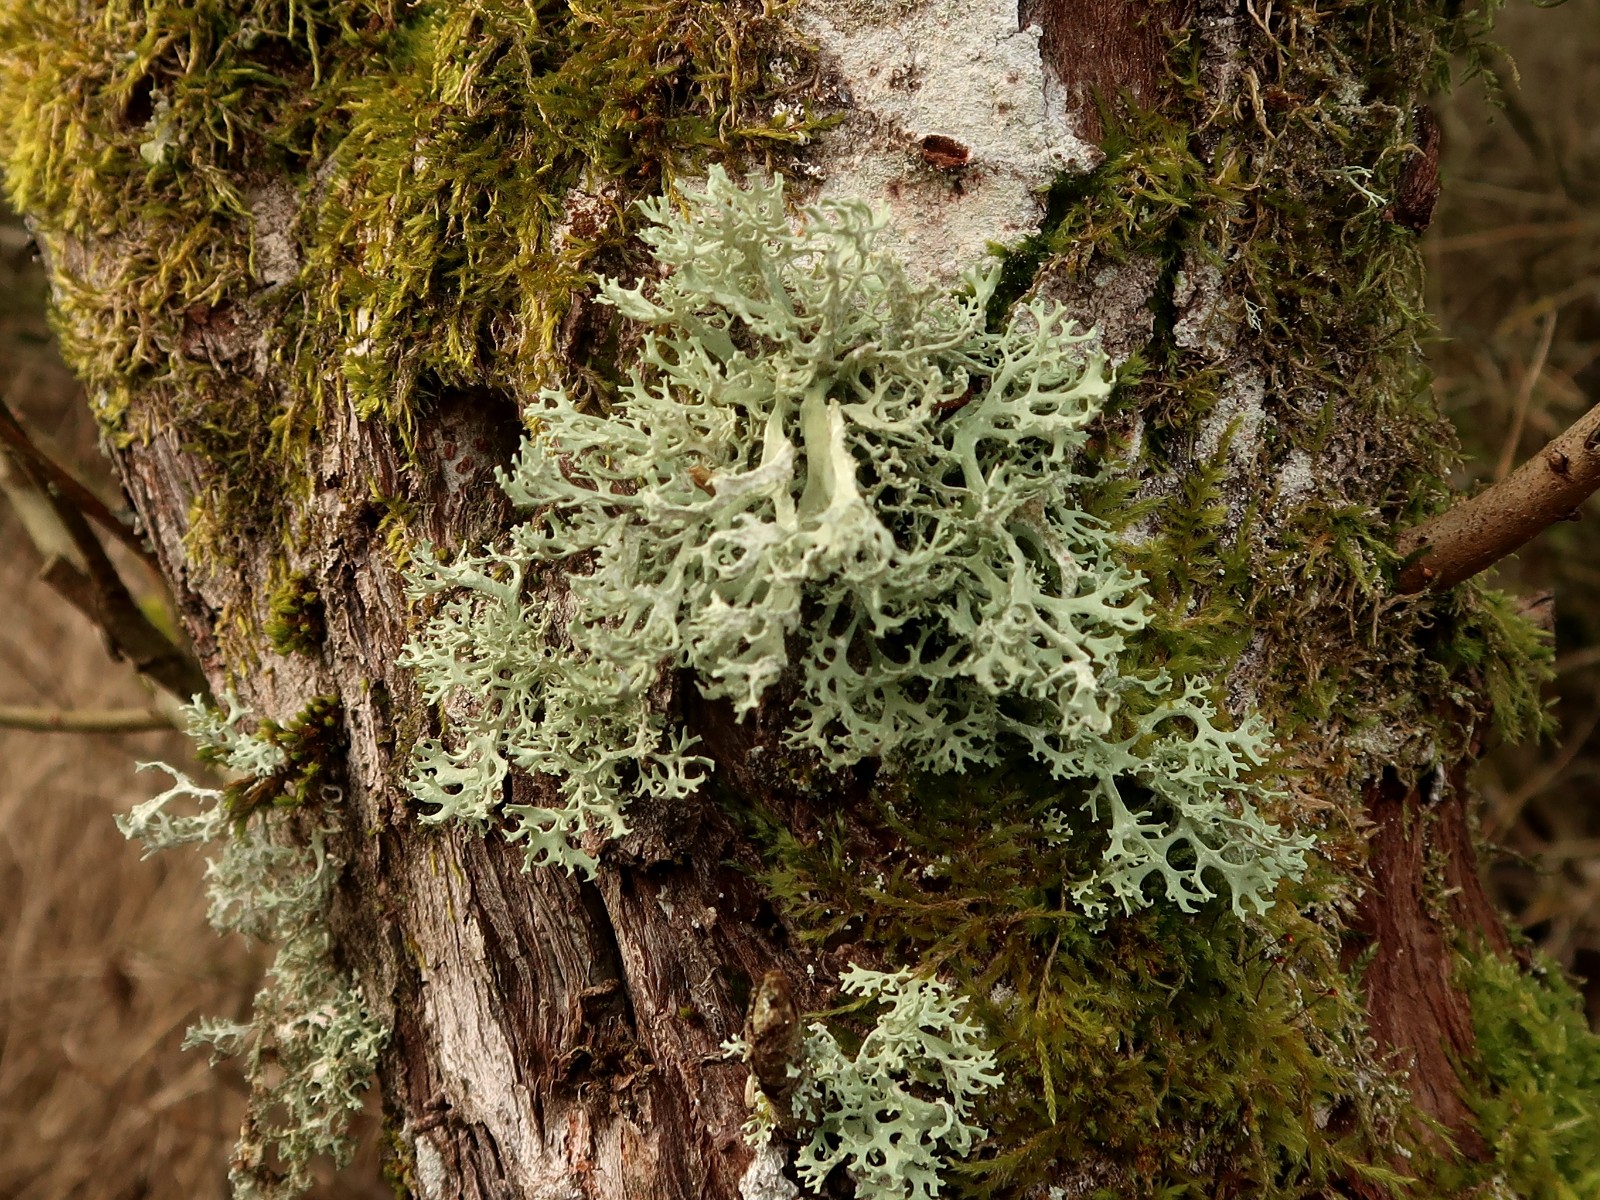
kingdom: Fungi
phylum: Ascomycota
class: Lecanoromycetes
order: Lecanorales
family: Parmeliaceae
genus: Evernia
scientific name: Evernia prunastri
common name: almindelig slåenlav
